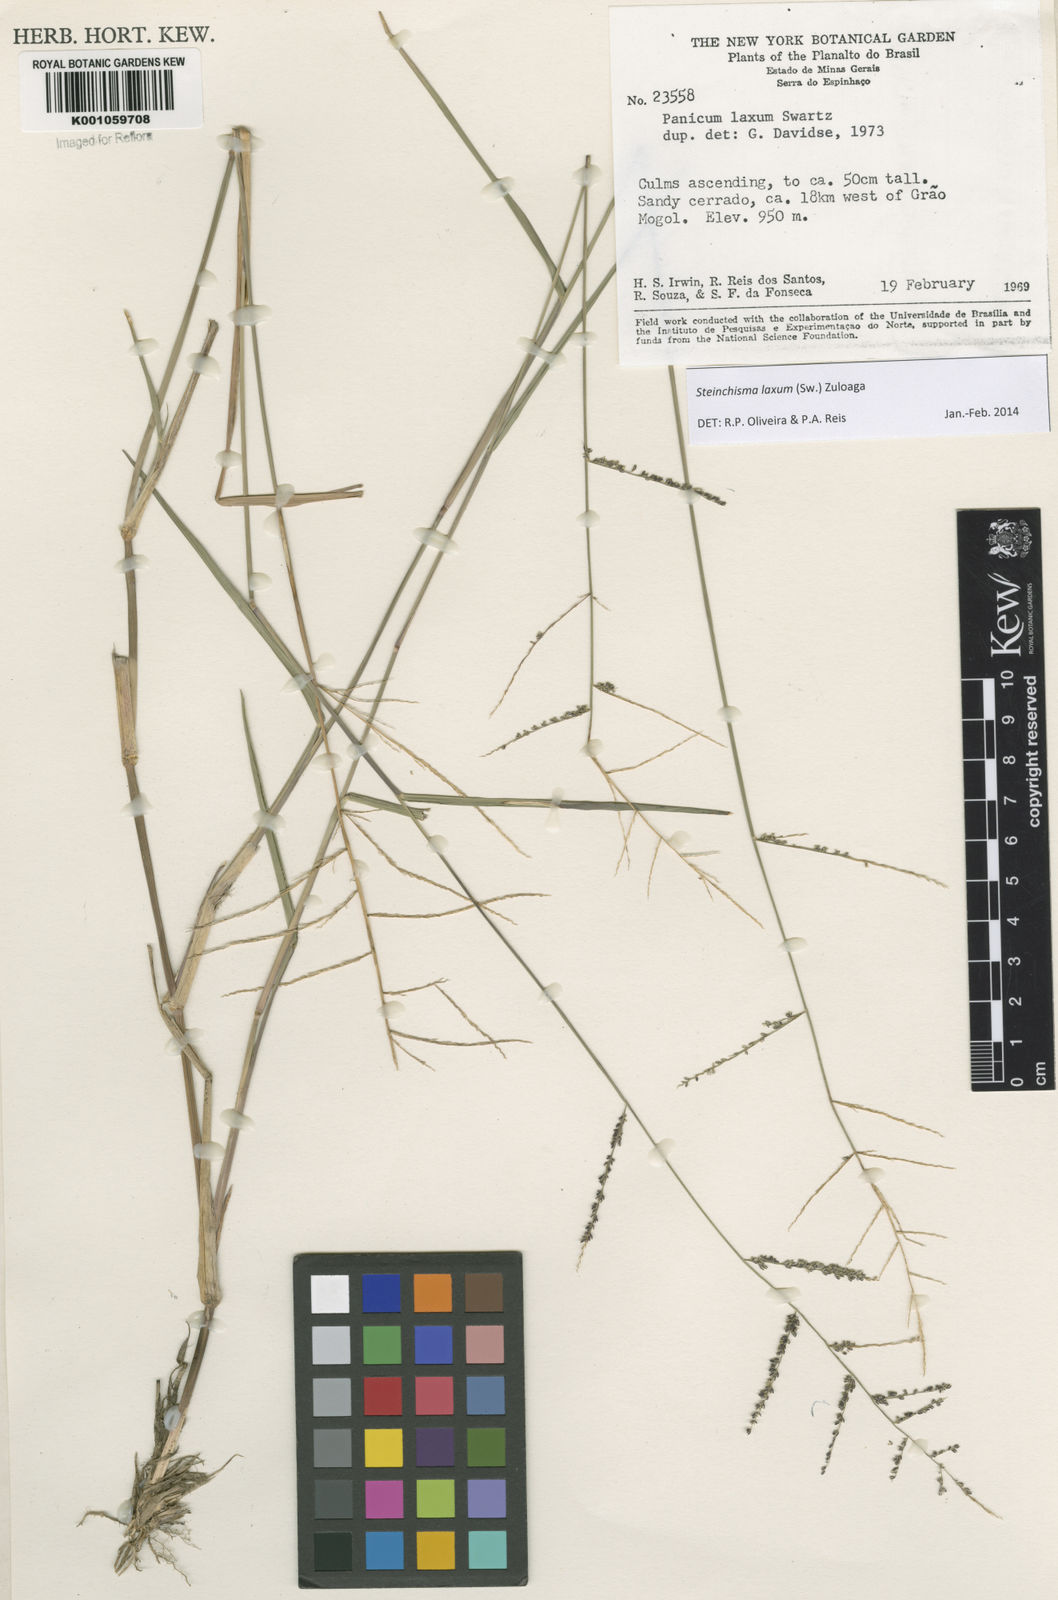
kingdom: Plantae
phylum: Tracheophyta
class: Liliopsida
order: Poales
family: Poaceae
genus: Steinchisma
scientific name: Steinchisma laxum
